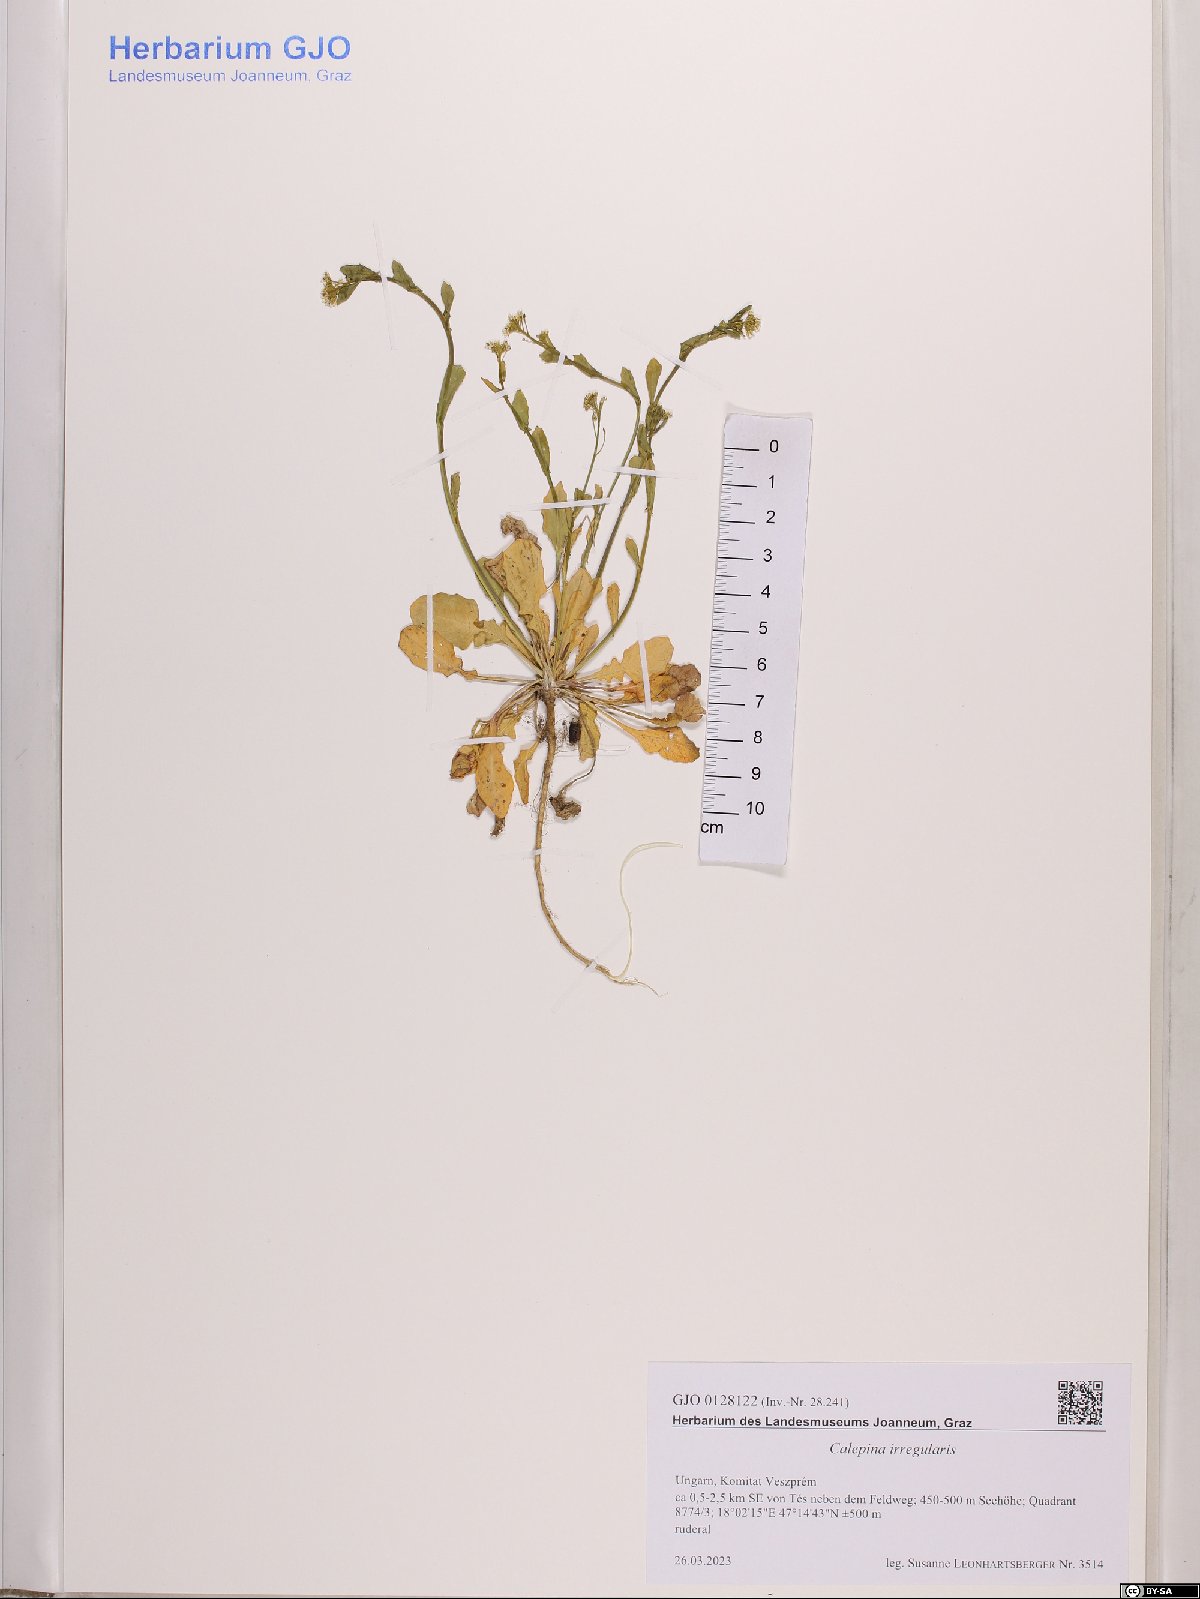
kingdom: Plantae
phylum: Tracheophyta
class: Magnoliopsida
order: Brassicales
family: Brassicaceae
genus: Calepina
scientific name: Calepina irregularis
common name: White ballmustard
